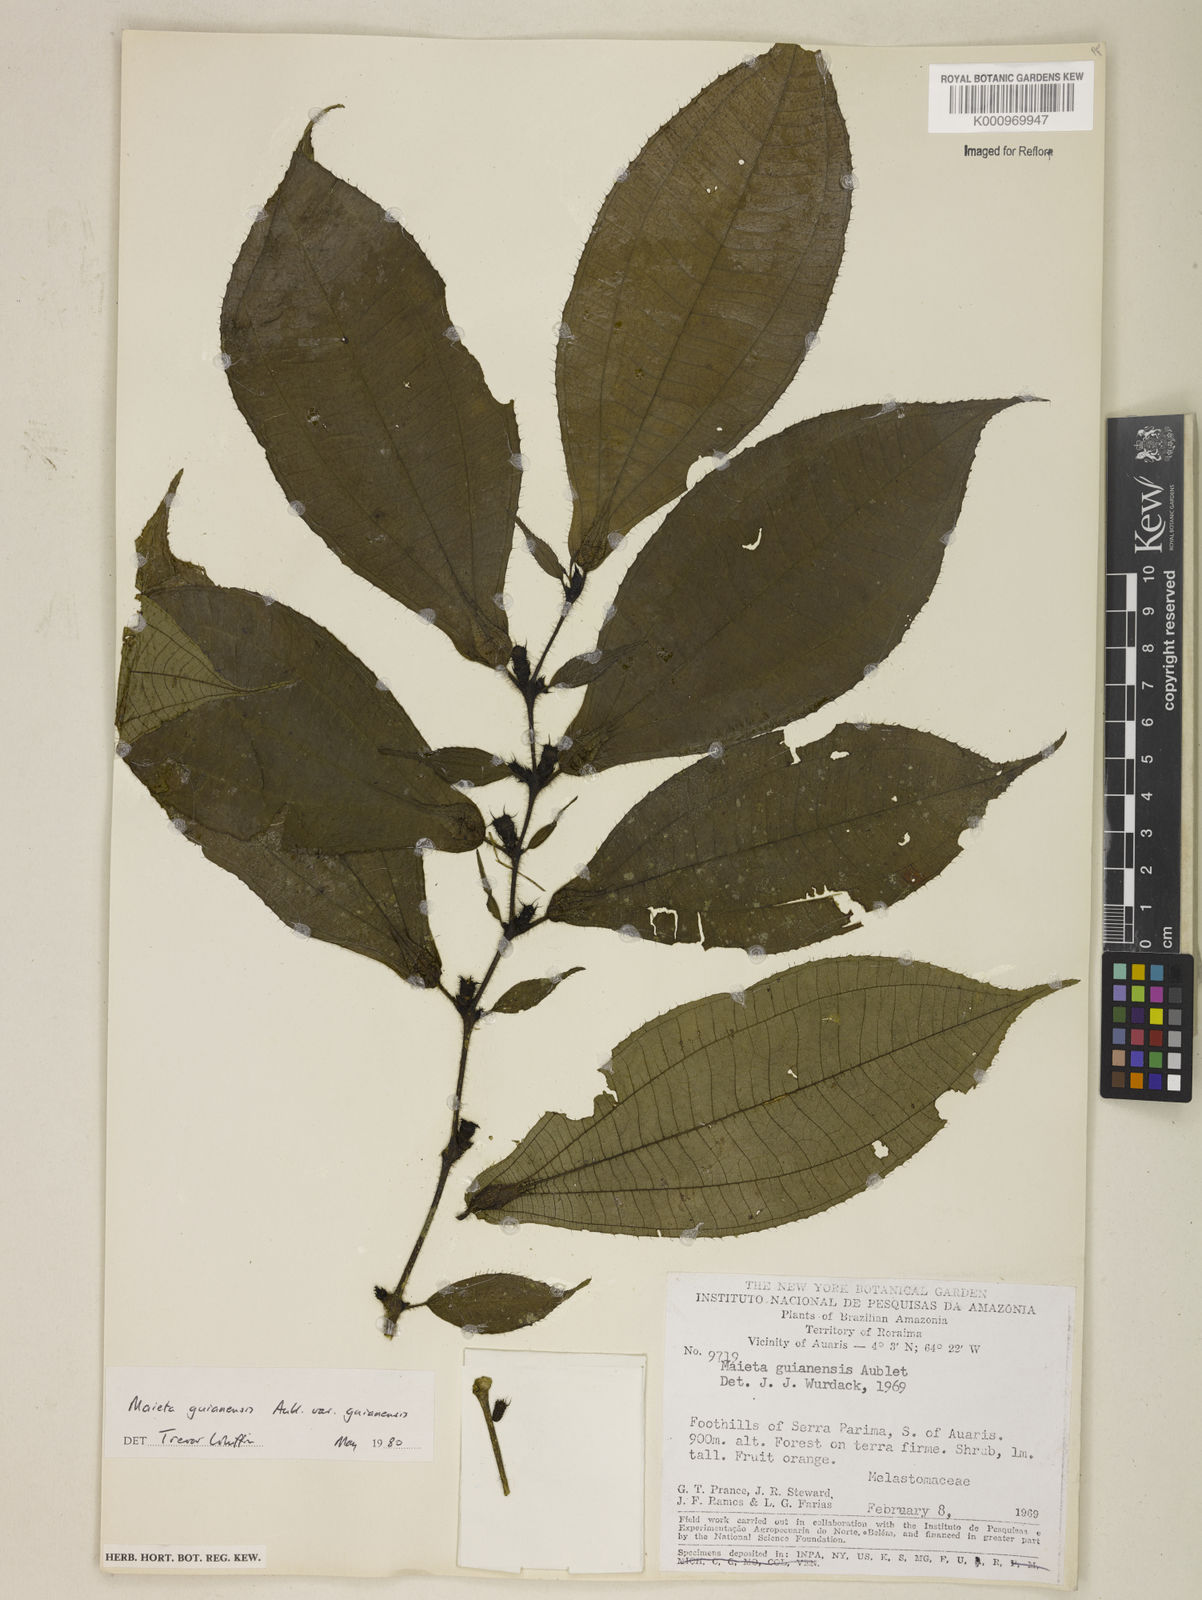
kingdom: Plantae
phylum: Tracheophyta
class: Magnoliopsida
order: Myrtales
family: Melastomataceae
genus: Miconia
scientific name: Miconia mayeta
